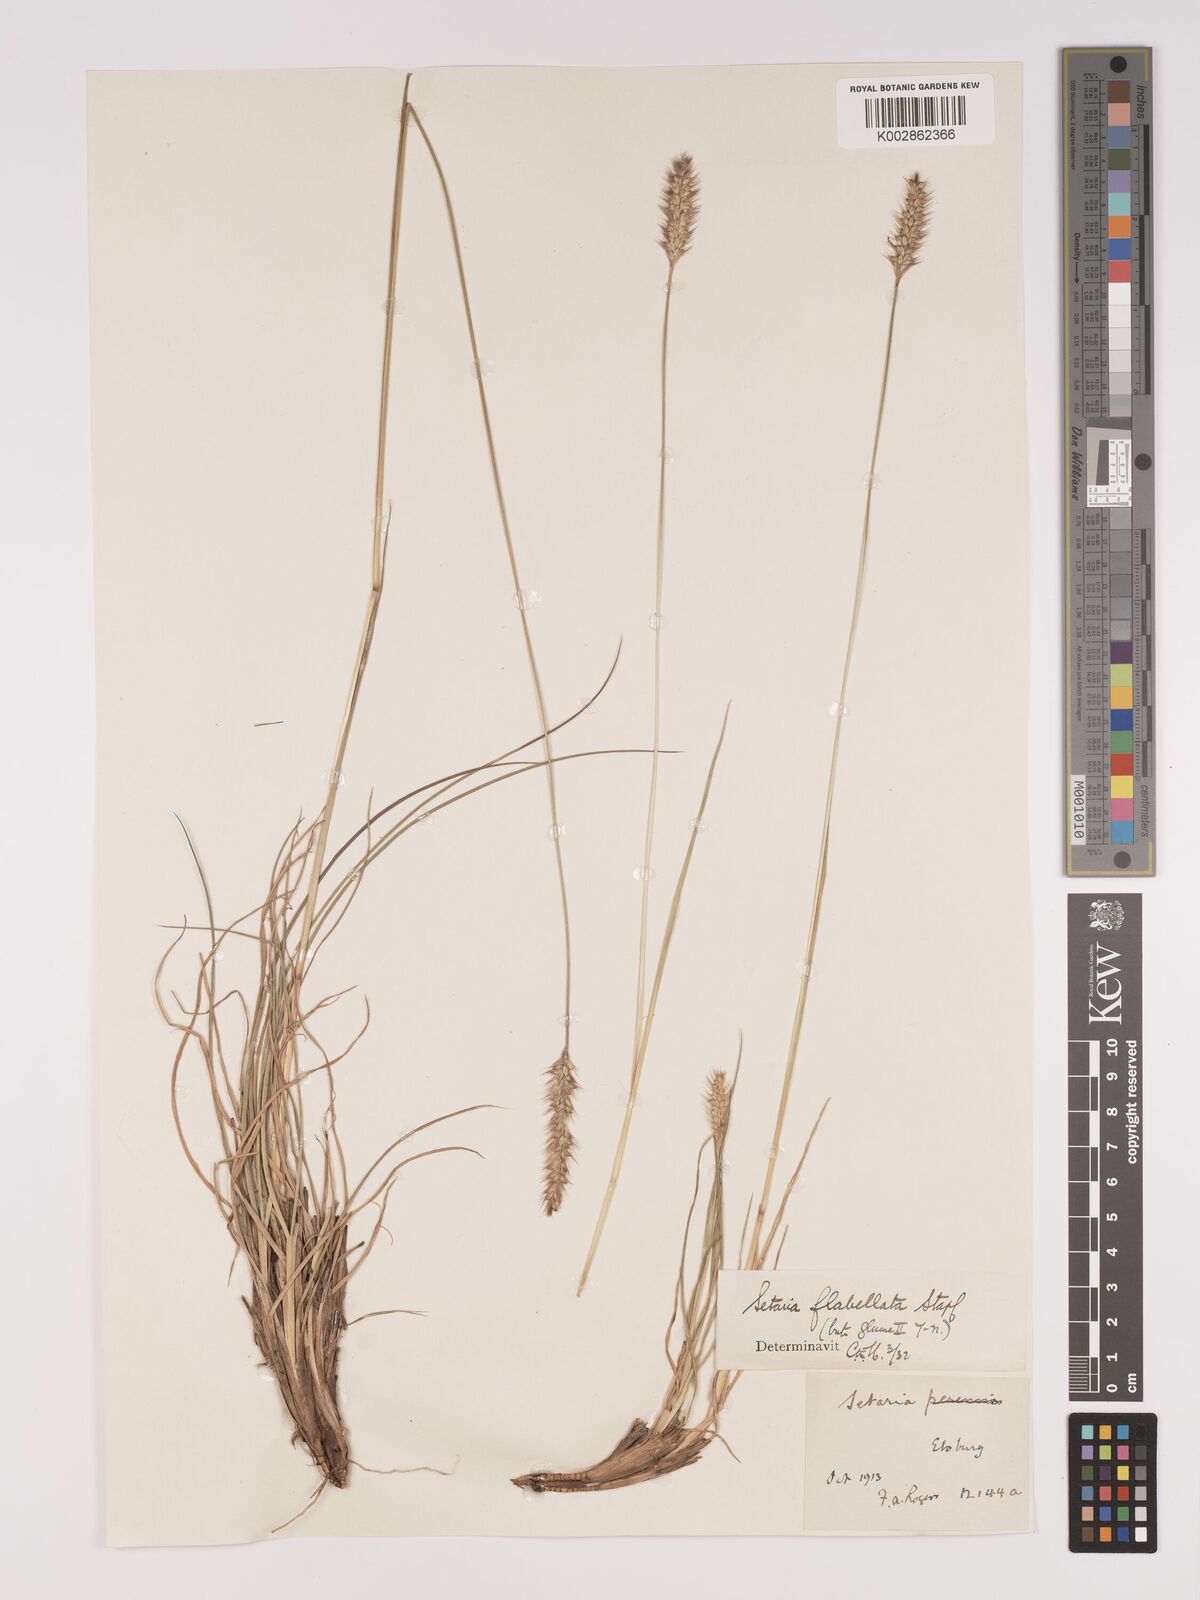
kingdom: Plantae
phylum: Tracheophyta
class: Liliopsida
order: Poales
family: Poaceae
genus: Setaria
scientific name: Setaria sphacelata
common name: African bristlegrass
